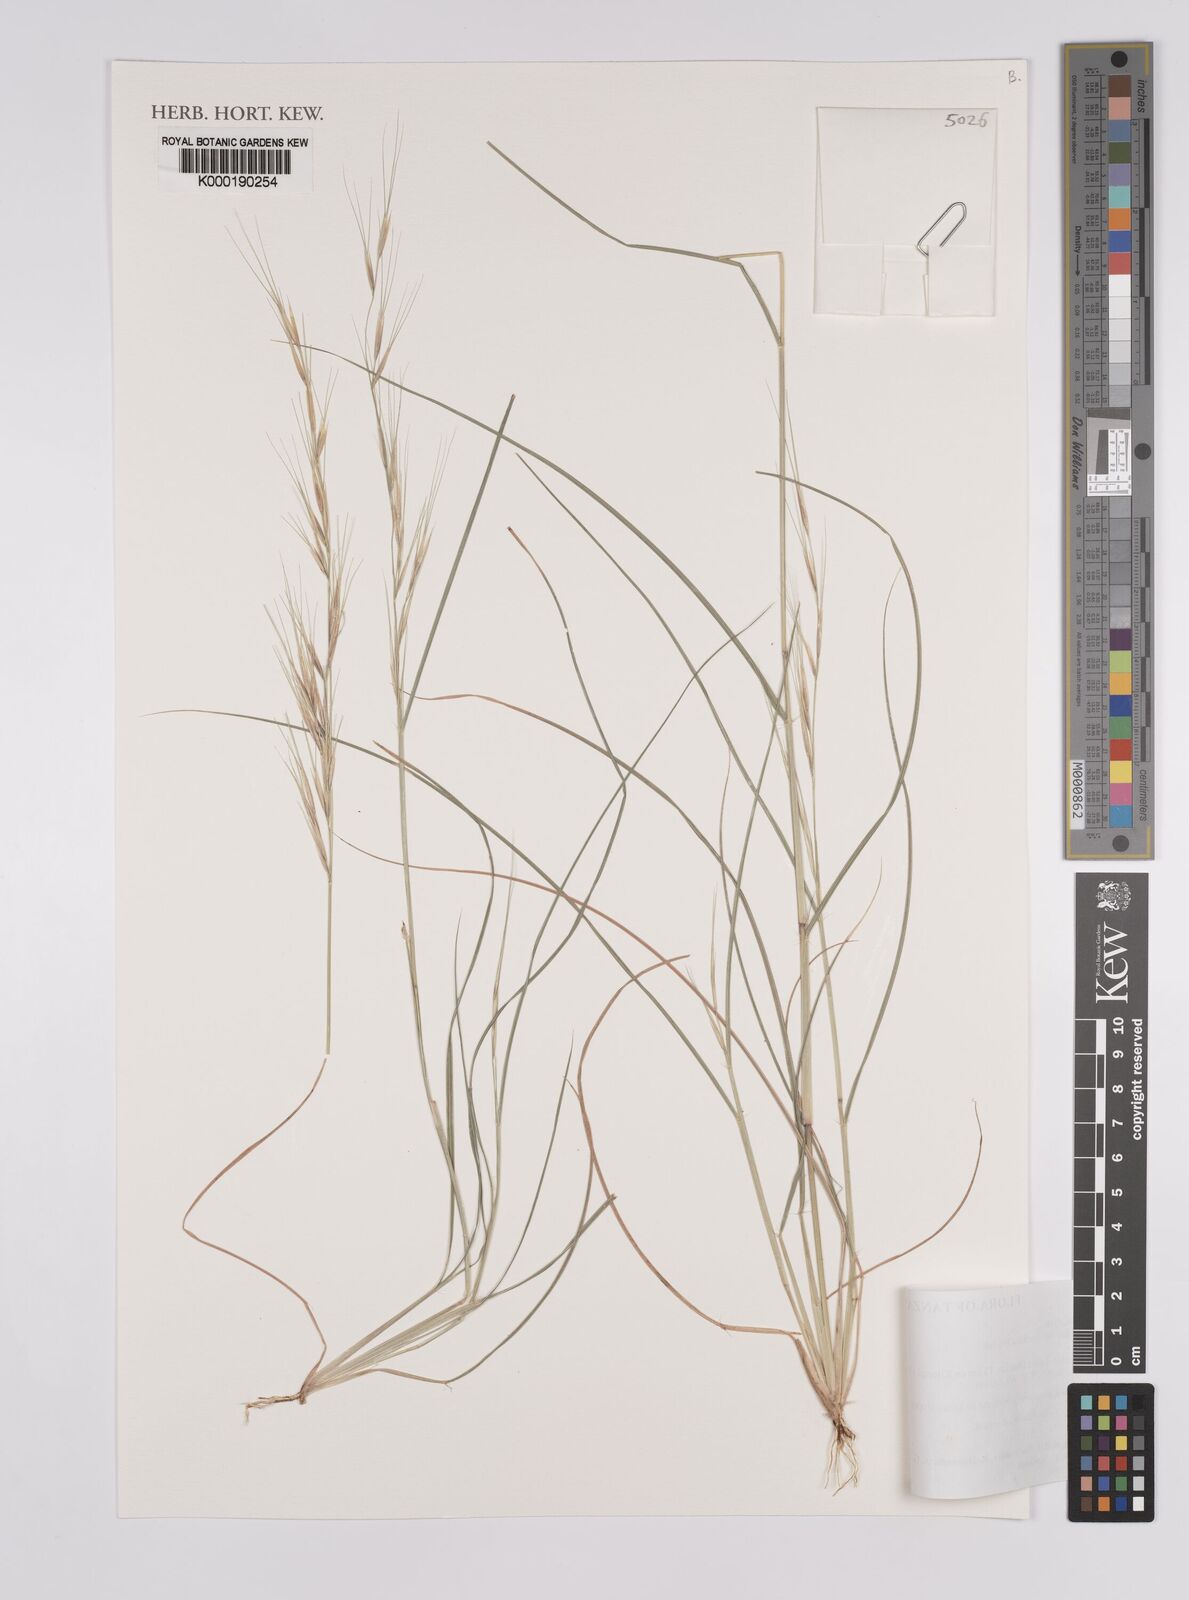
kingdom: Plantae
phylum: Tracheophyta
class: Liliopsida
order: Poales
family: Poaceae
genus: Aristida
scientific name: Aristida rhiniochloa
